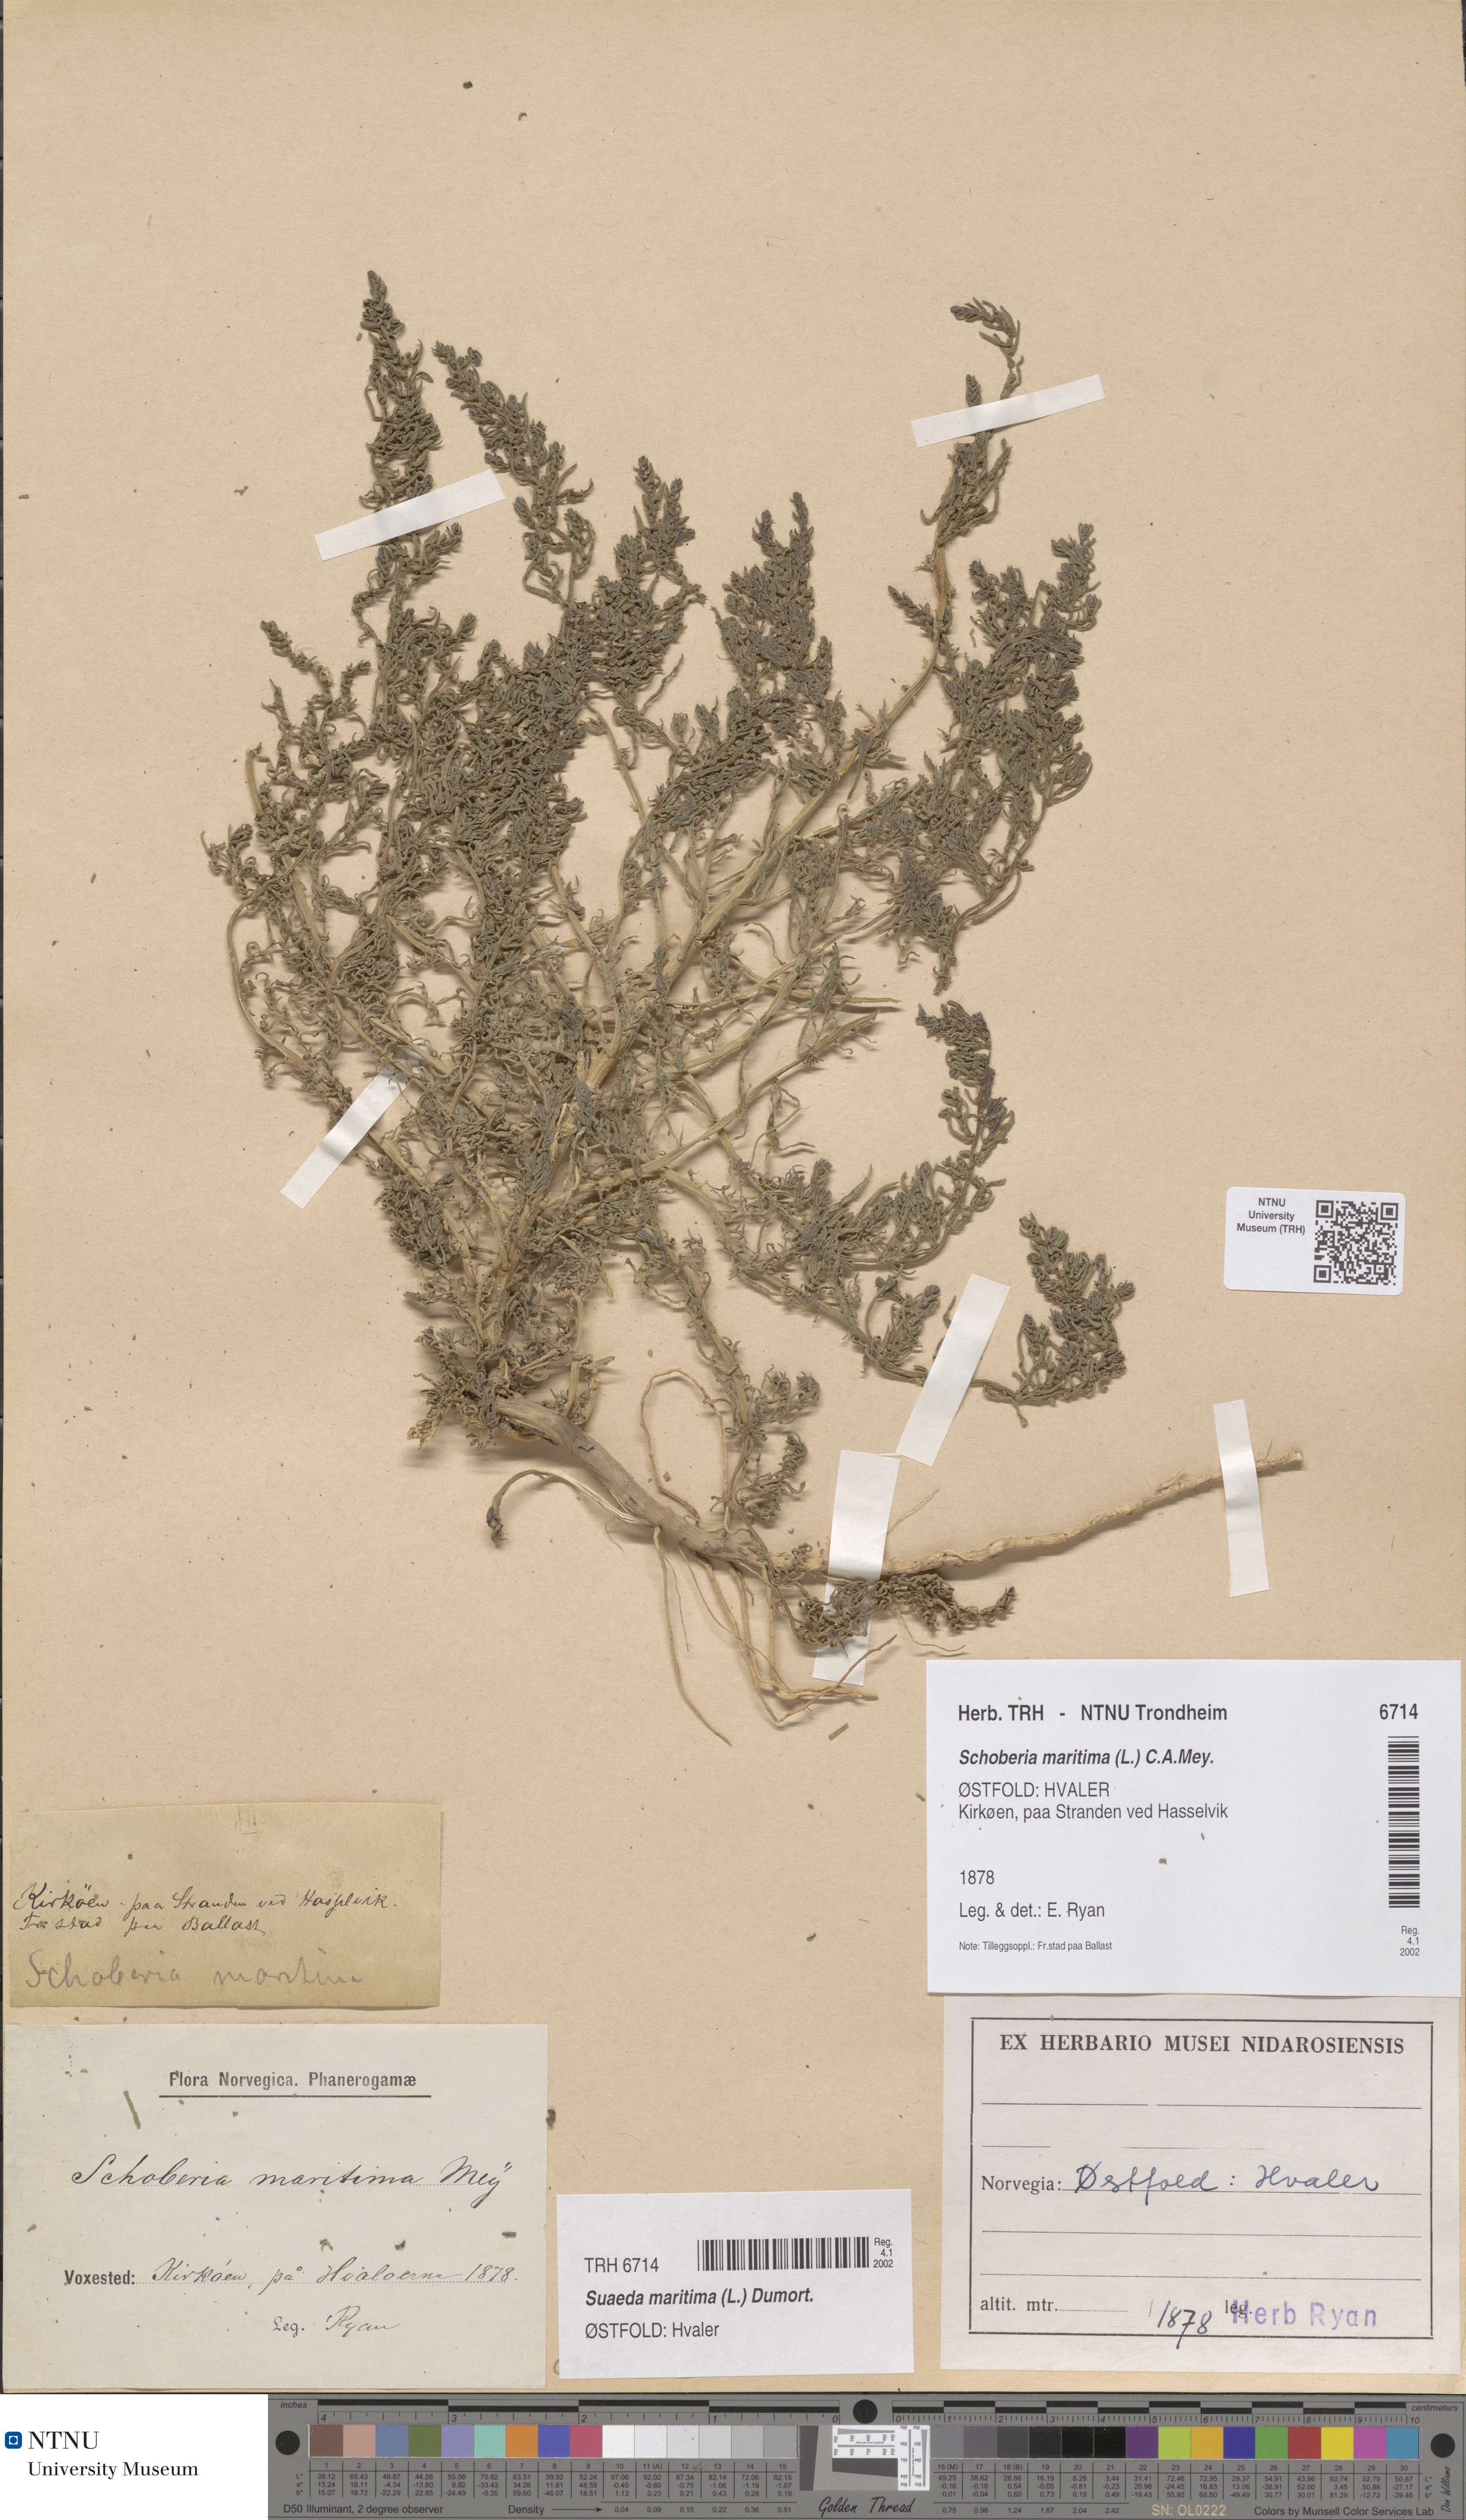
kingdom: Plantae
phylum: Tracheophyta
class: Magnoliopsida
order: Caryophyllales
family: Amaranthaceae
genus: Suaeda
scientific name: Suaeda maritima
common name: Annual sea-blite
